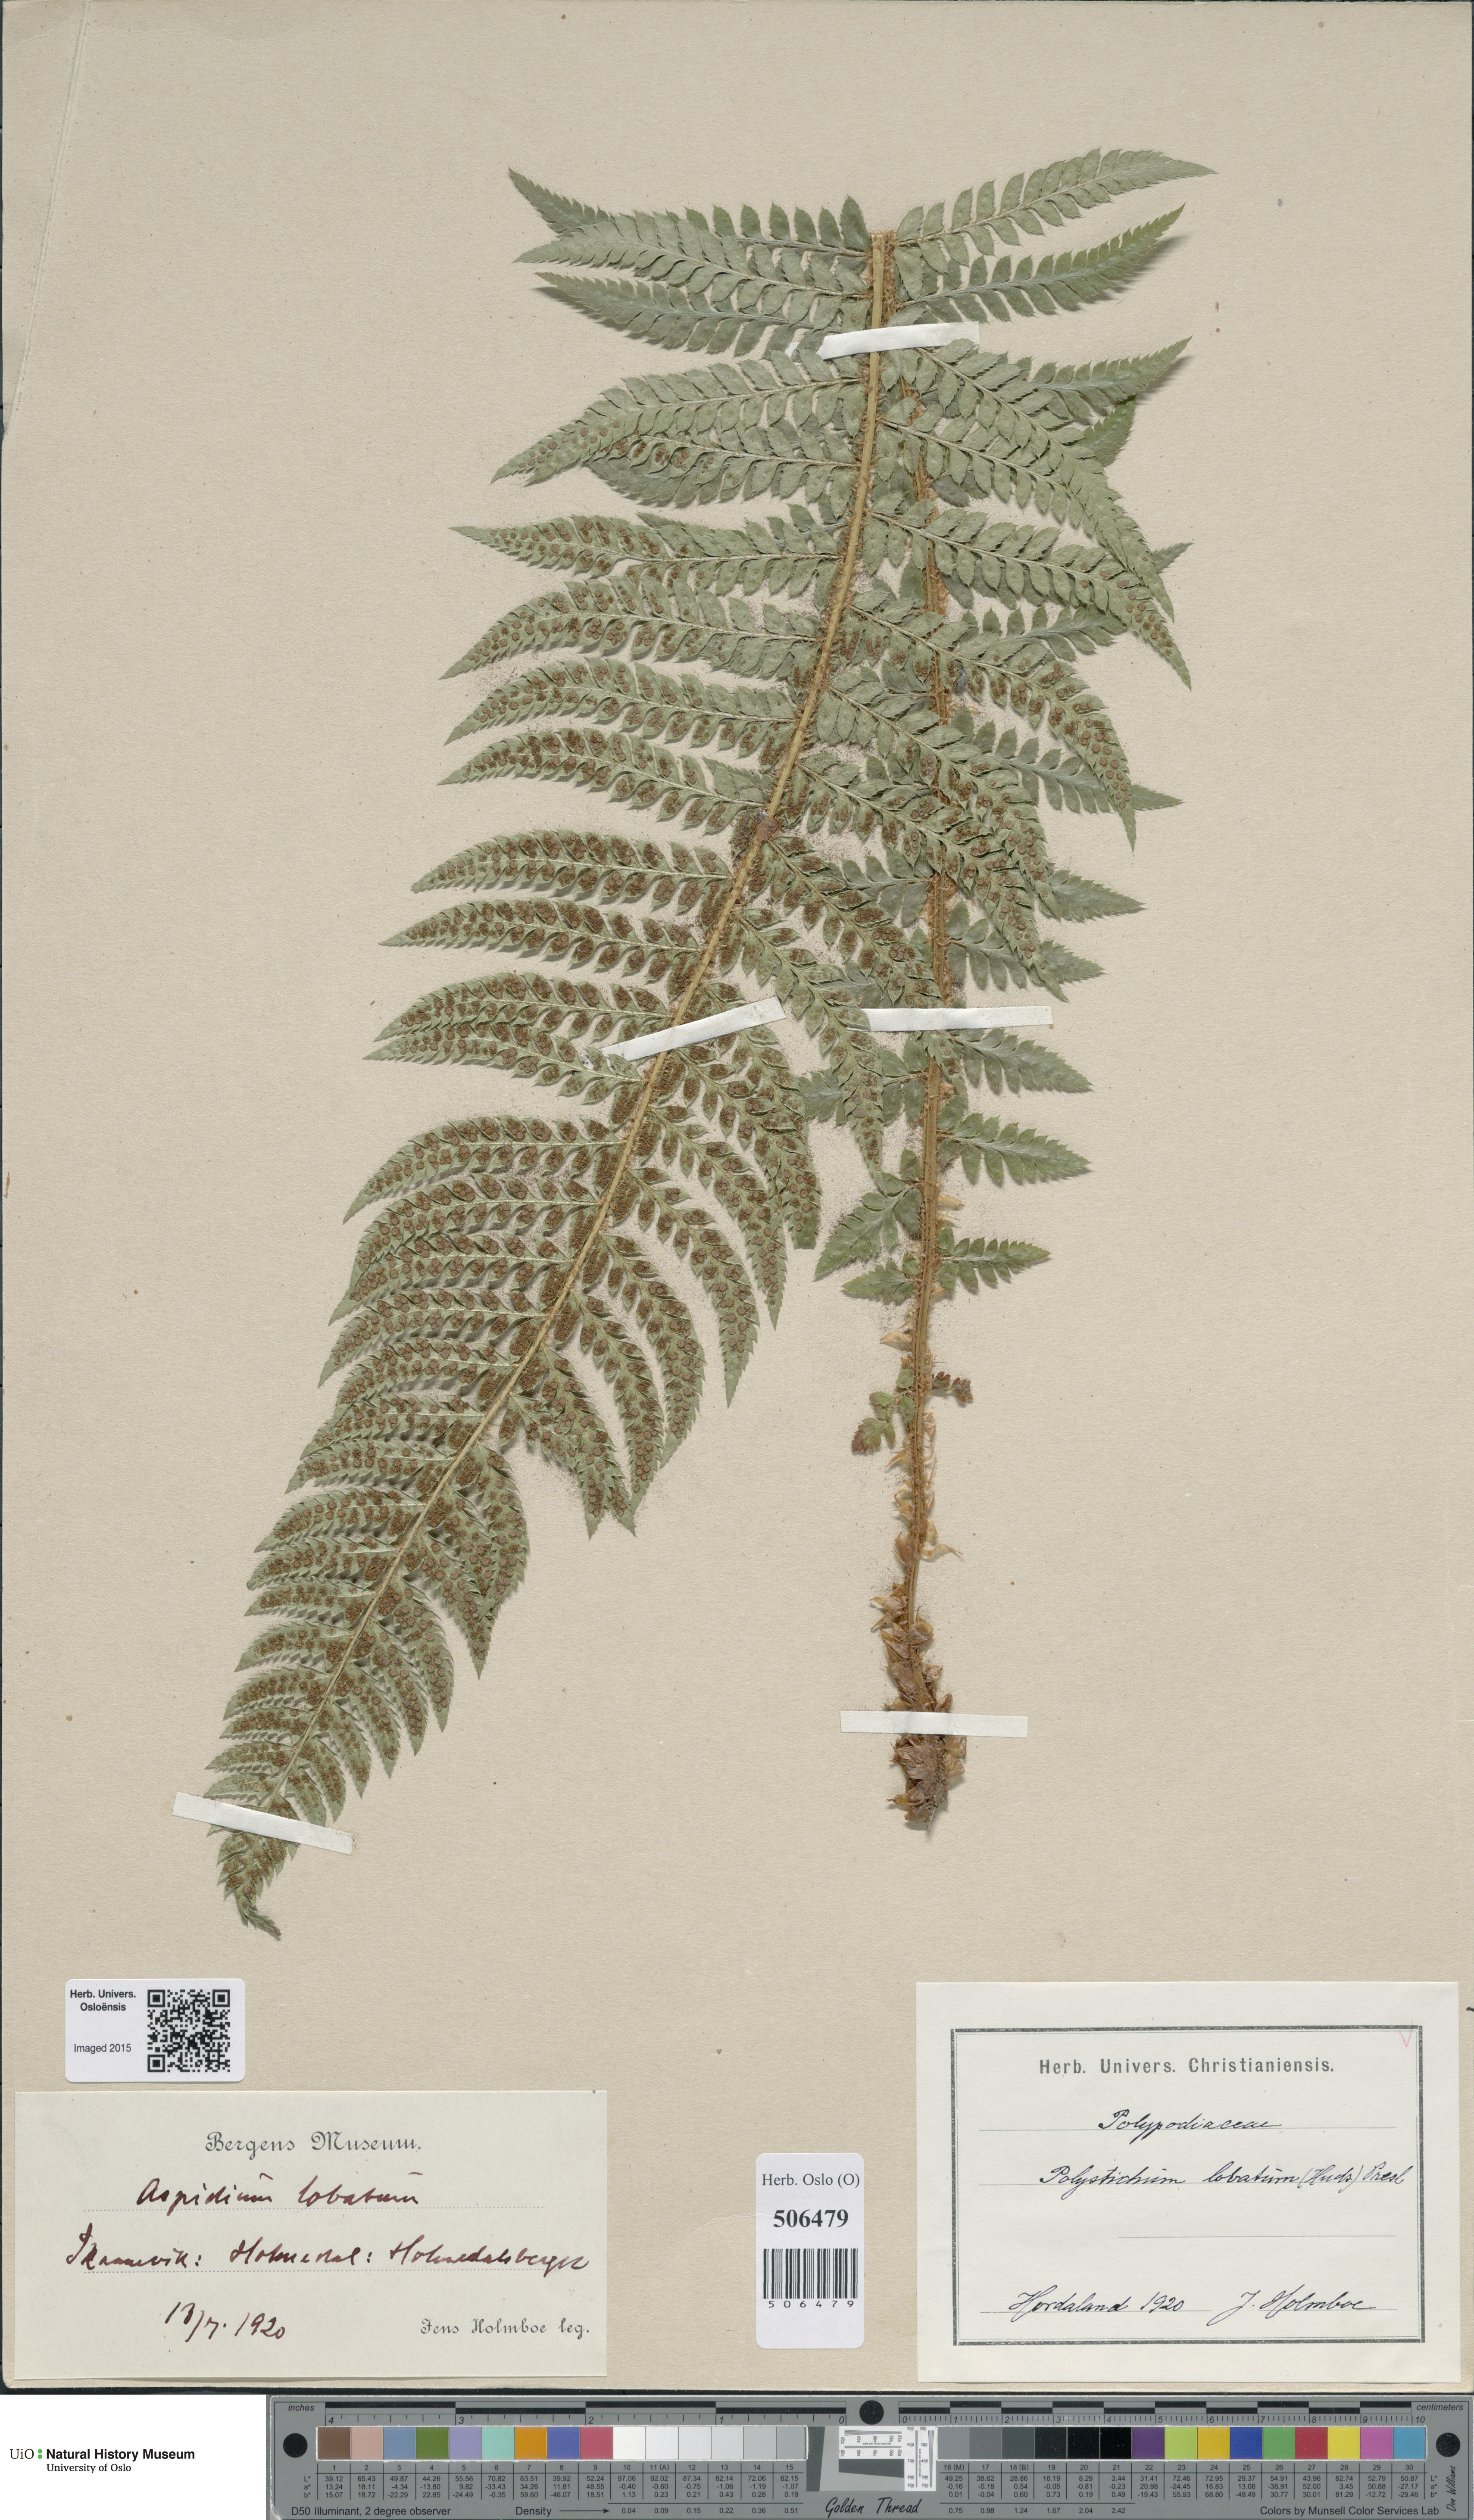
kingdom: Plantae
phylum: Tracheophyta
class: Polypodiopsida
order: Polypodiales
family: Dryopteridaceae
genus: Polystichum
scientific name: Polystichum aculeatum
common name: Hard shield-fern
